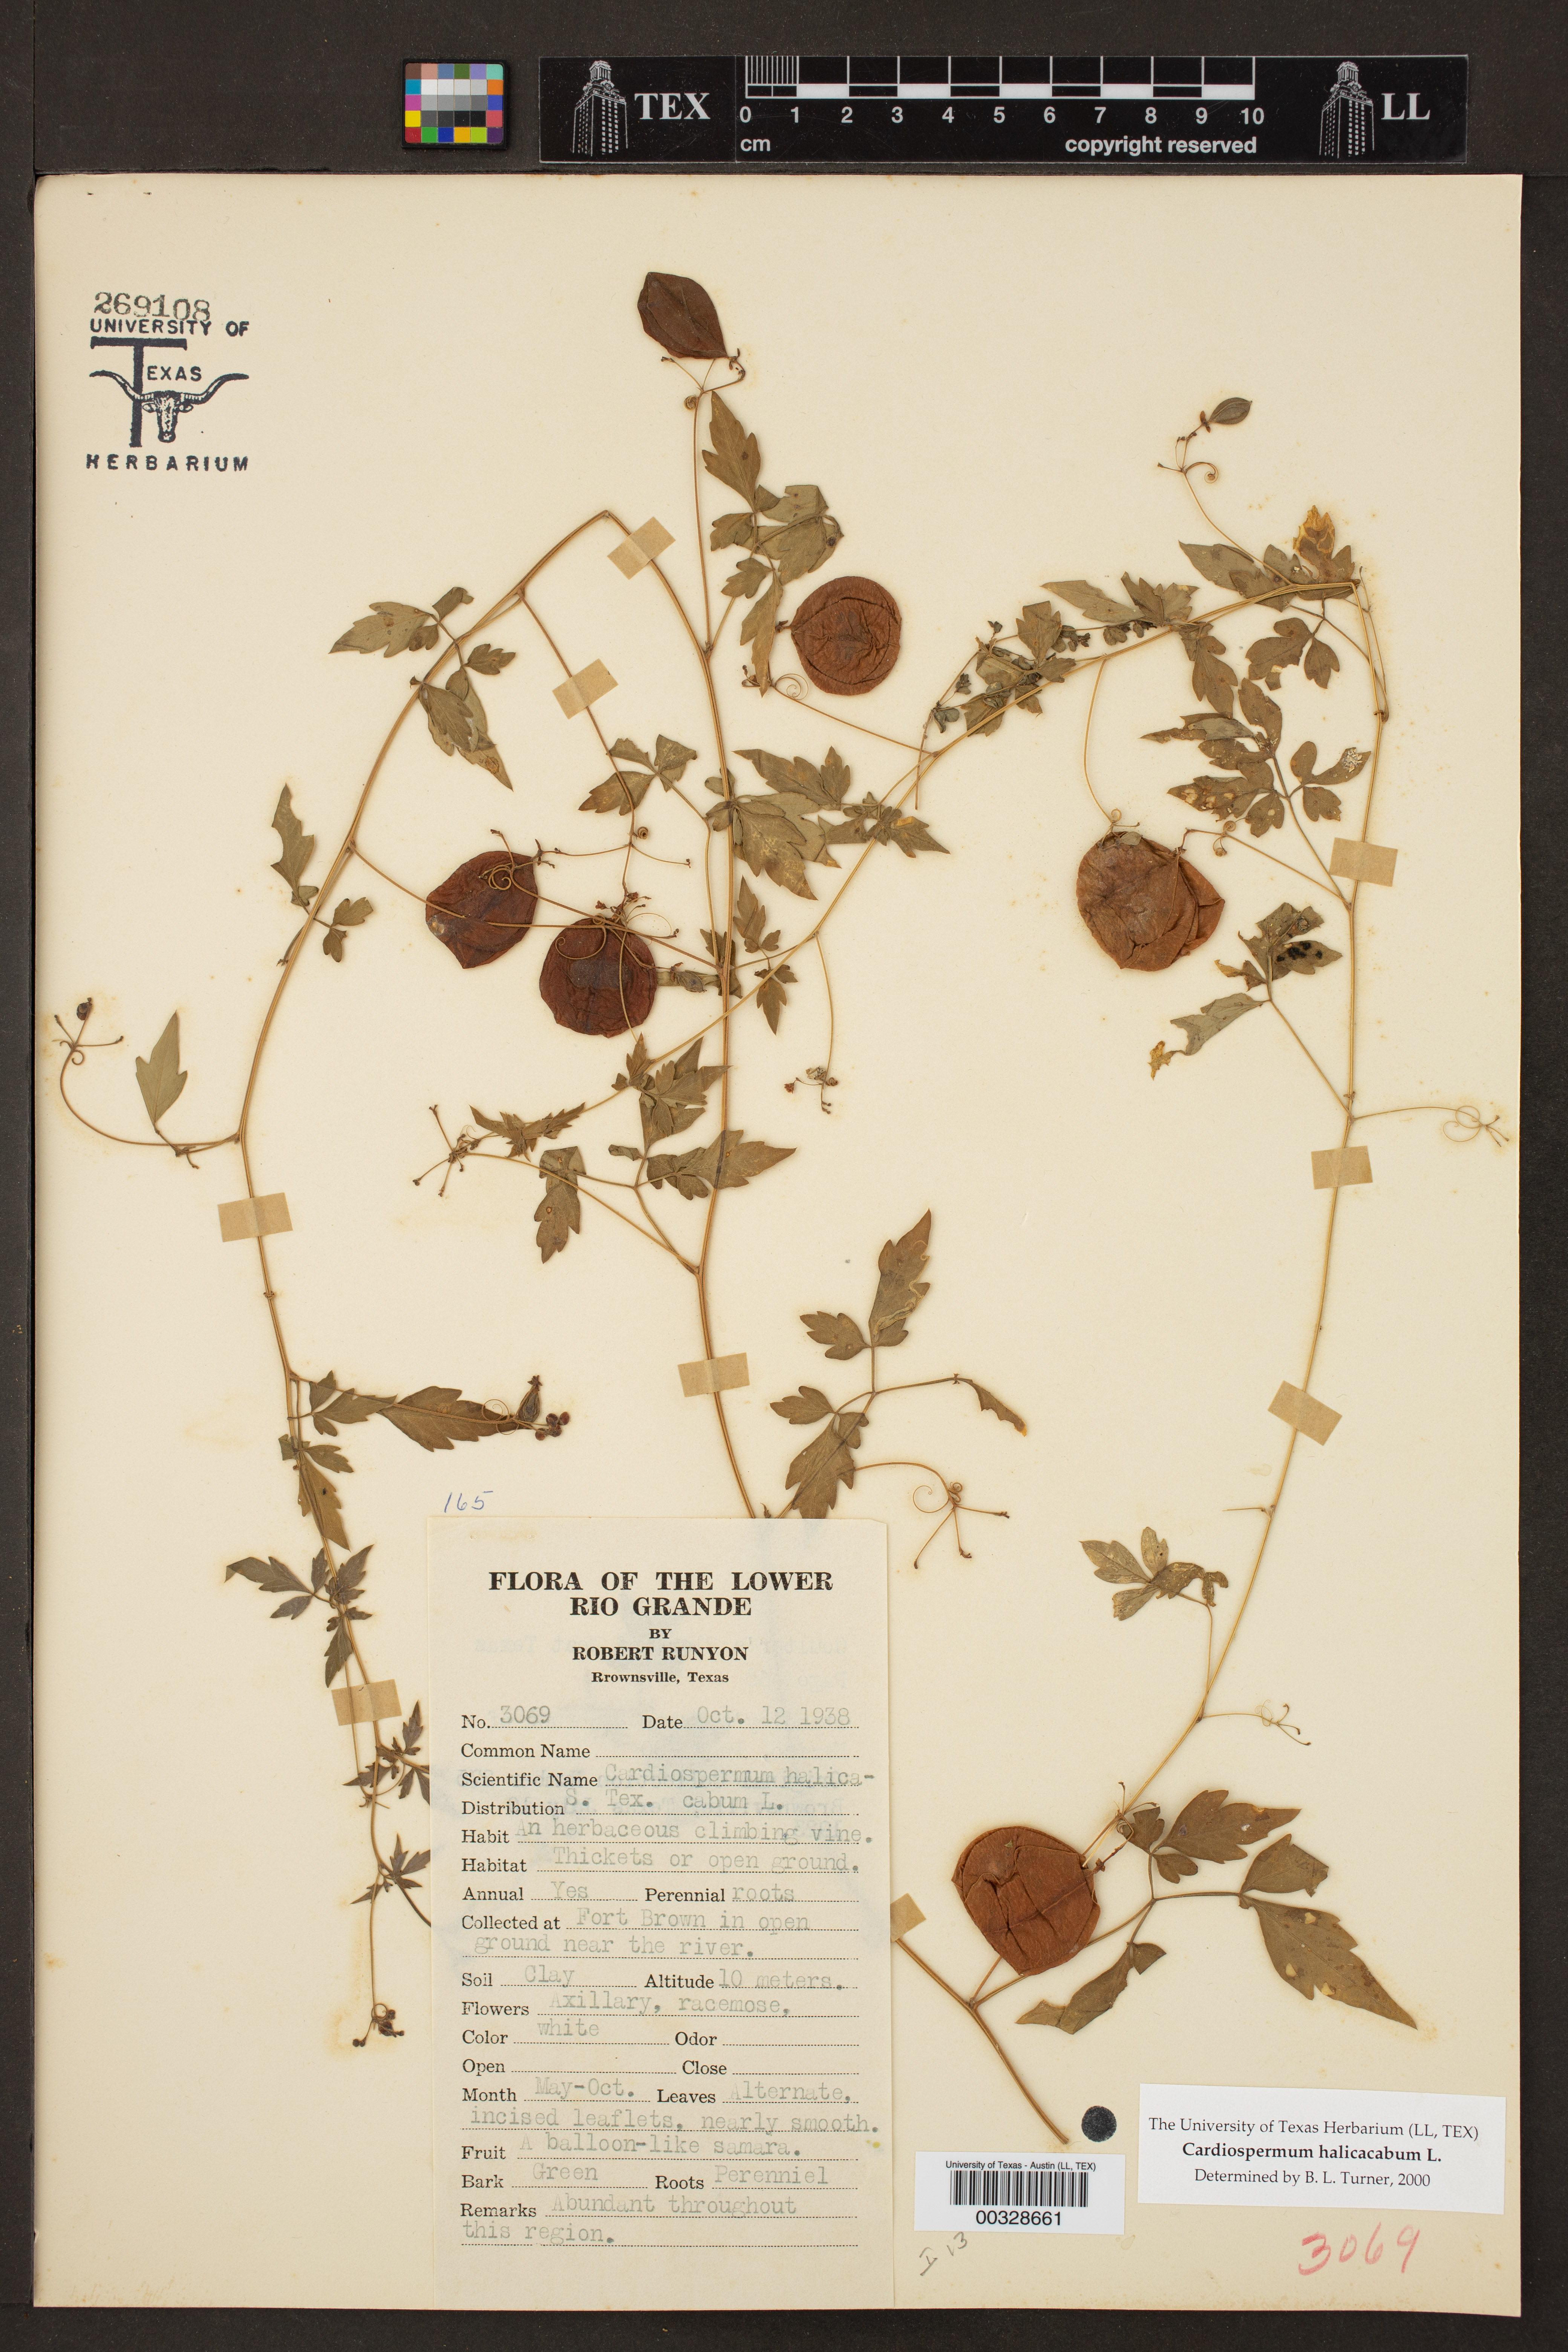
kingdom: Plantae
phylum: Tracheophyta
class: Magnoliopsida
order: Sapindales
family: Sapindaceae
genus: Cardiospermum
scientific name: Cardiospermum halicacabum
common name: Balloon vine
